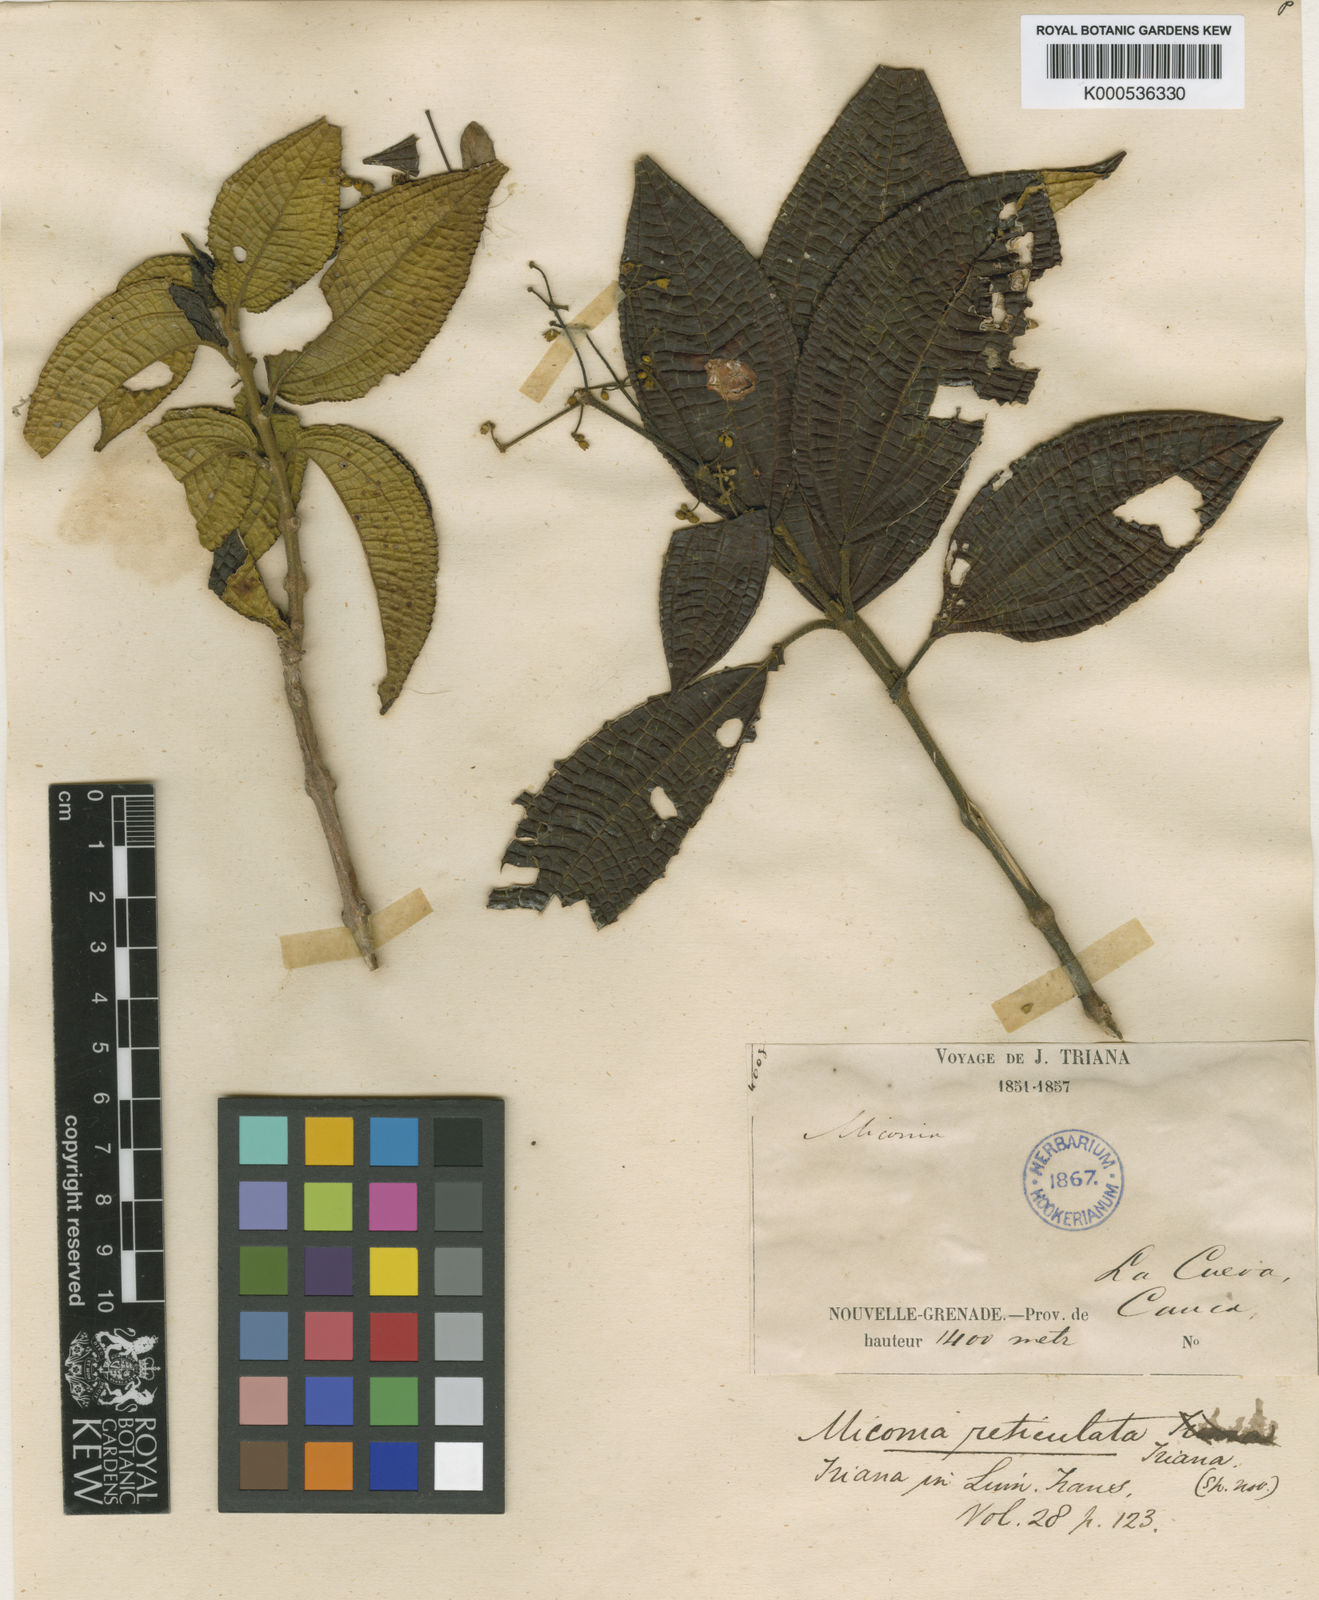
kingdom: Plantae
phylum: Tracheophyta
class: Magnoliopsida
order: Myrtales
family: Melastomataceae
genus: Miconia
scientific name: Miconia reticulata
